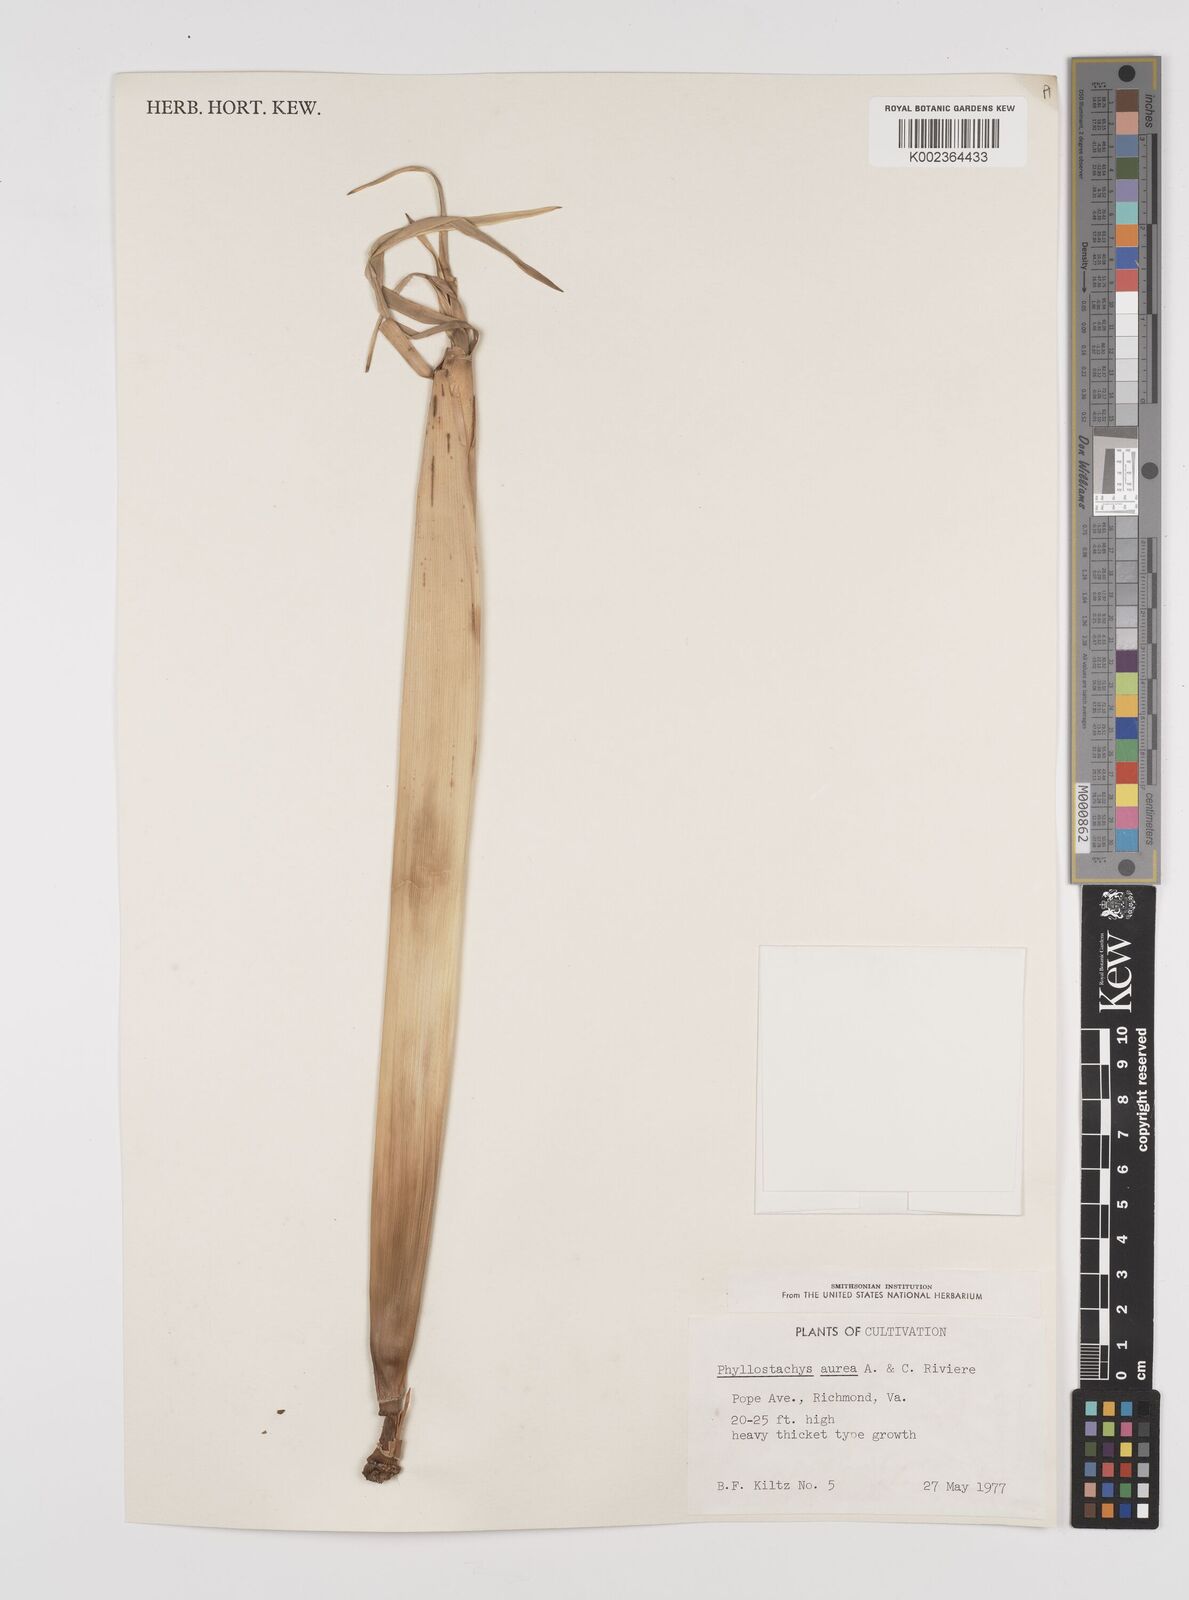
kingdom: Plantae
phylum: Tracheophyta
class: Liliopsida
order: Poales
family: Poaceae
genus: Phyllostachys
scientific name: Phyllostachys aurea
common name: Golden bamboo
